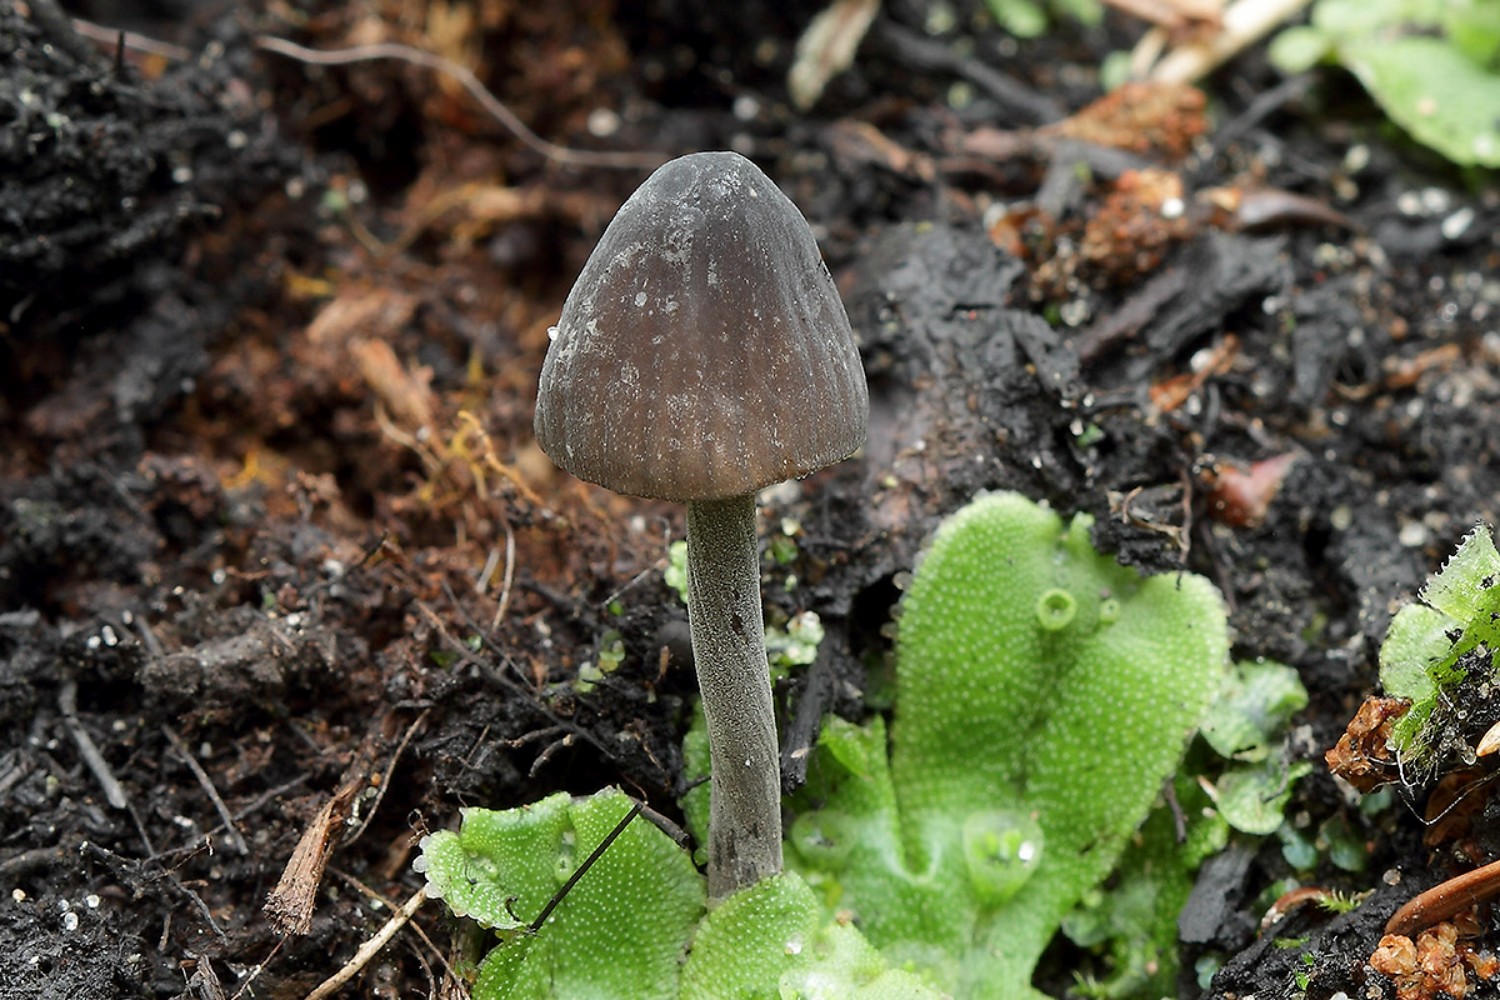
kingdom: Fungi
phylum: Basidiomycota
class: Agaricomycetes
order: Agaricales
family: Mycenaceae
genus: Mycena
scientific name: Mycena galopus
